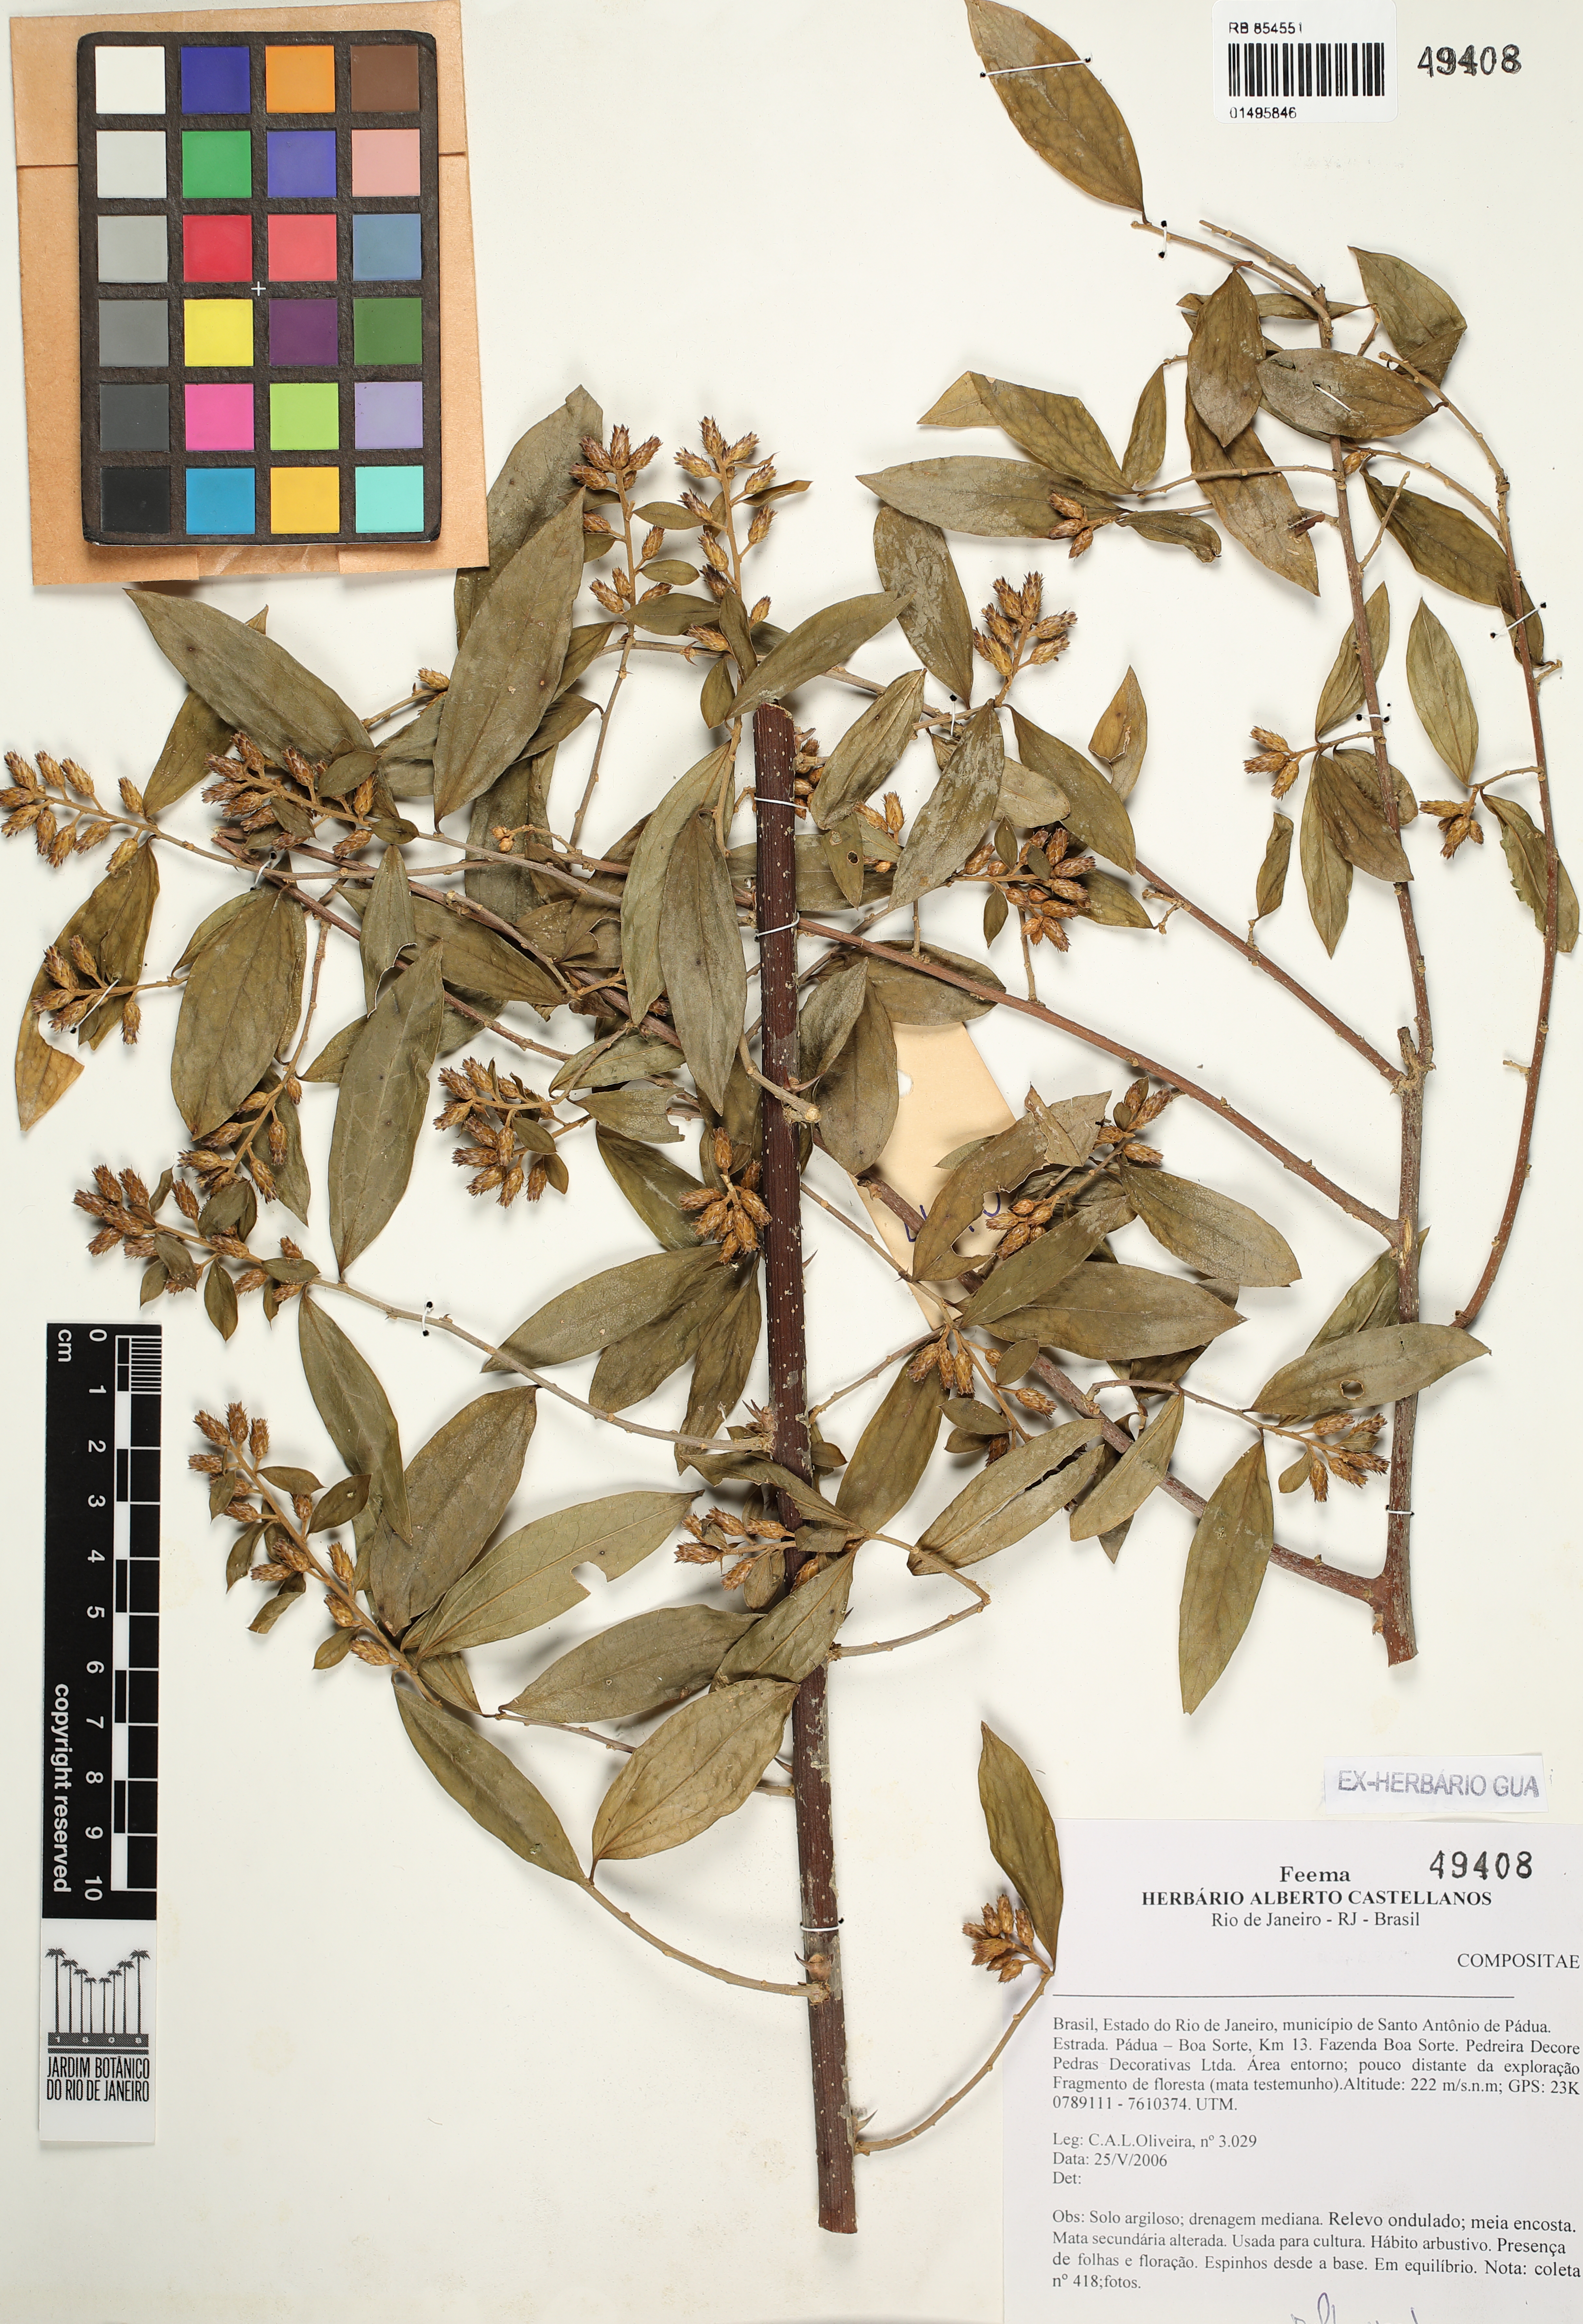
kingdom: Plantae
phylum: Tracheophyta
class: Magnoliopsida
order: Asterales
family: Asteraceae
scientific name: Asteraceae
